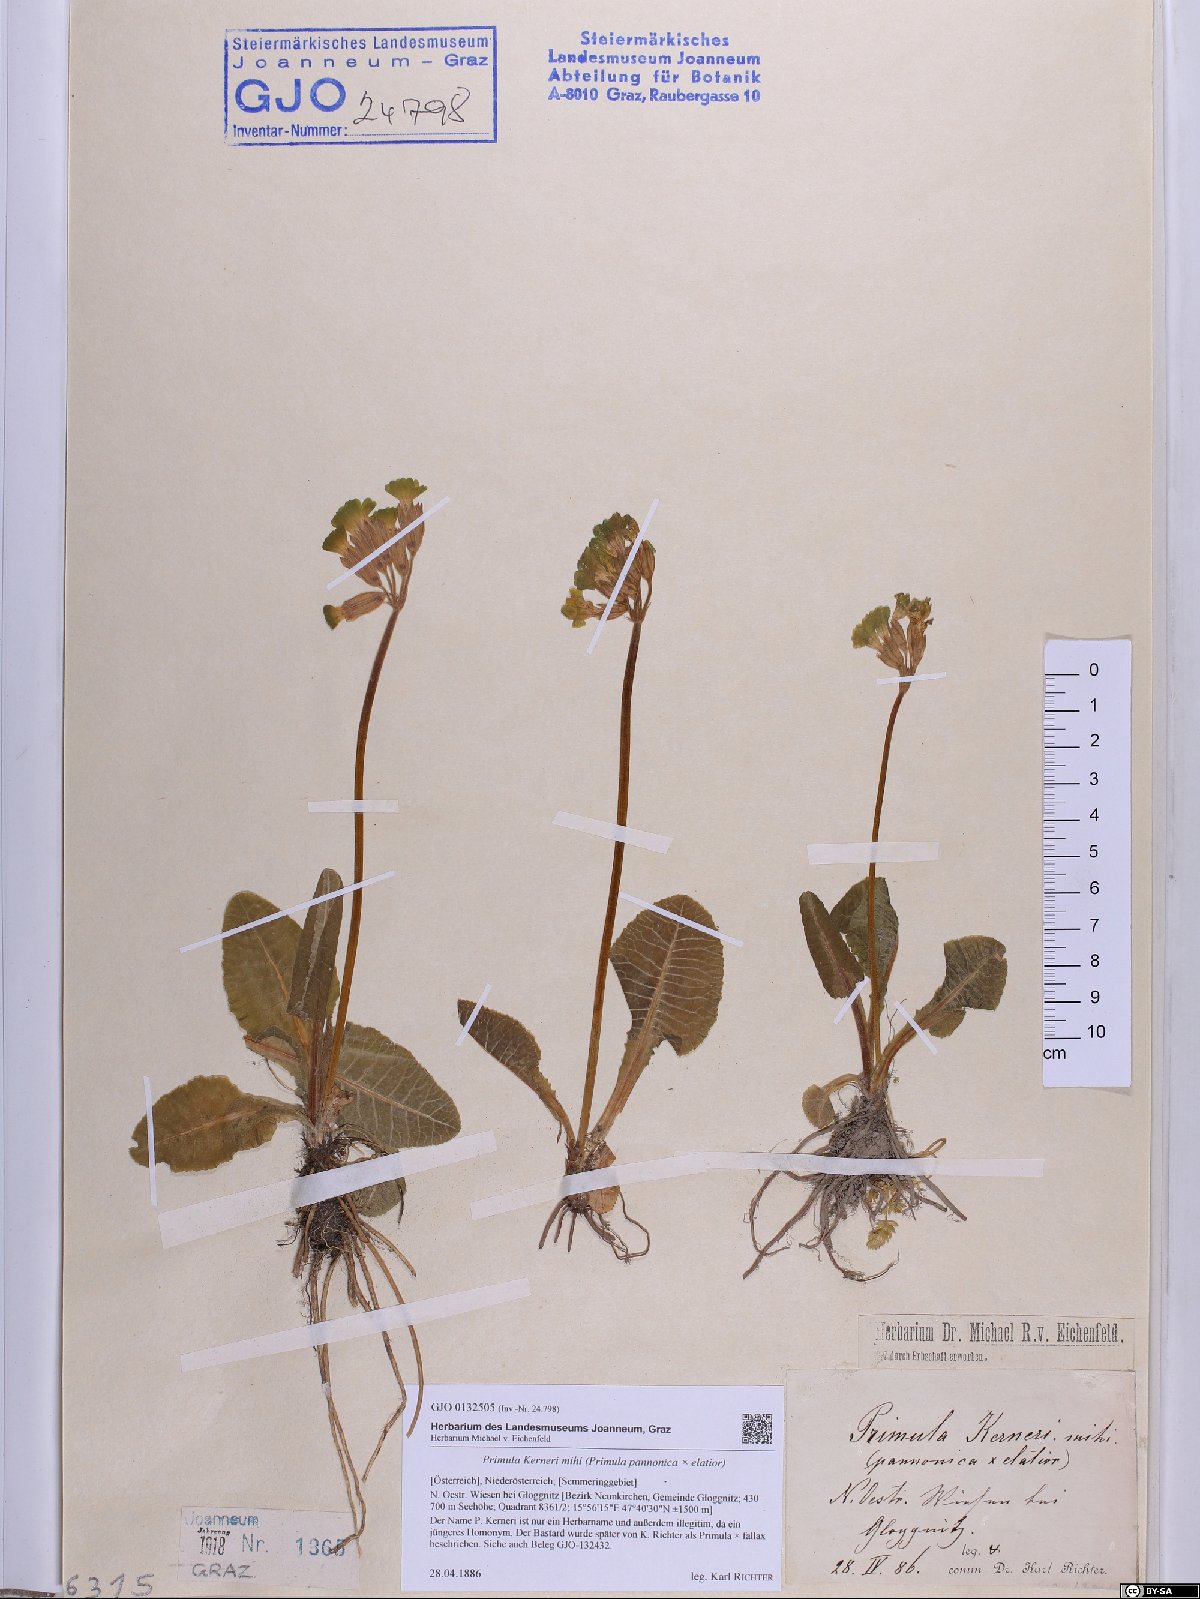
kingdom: Plantae
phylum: Tracheophyta
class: Magnoliopsida
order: Ericales
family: Primulaceae
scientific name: Primulaceae
